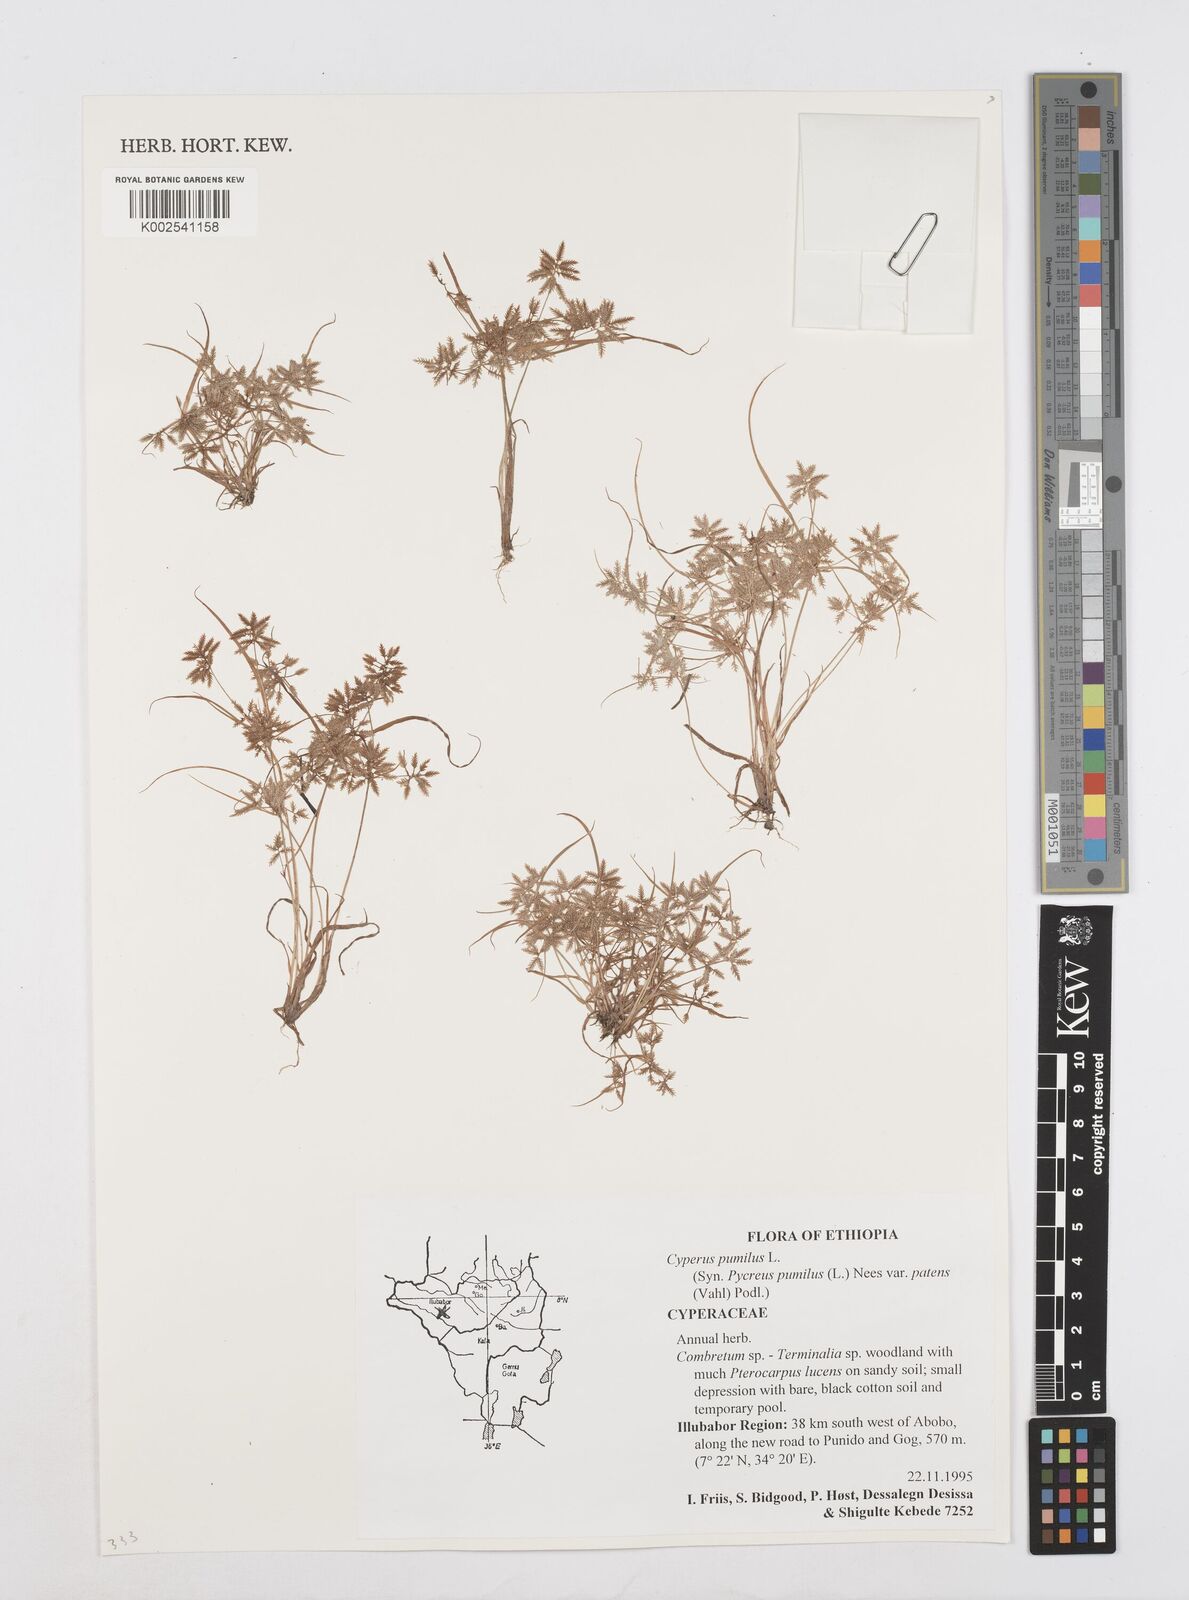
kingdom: Plantae
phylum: Tracheophyta
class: Liliopsida
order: Poales
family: Cyperaceae
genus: Cyperus
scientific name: Cyperus pumilus
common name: Low flatsedge
